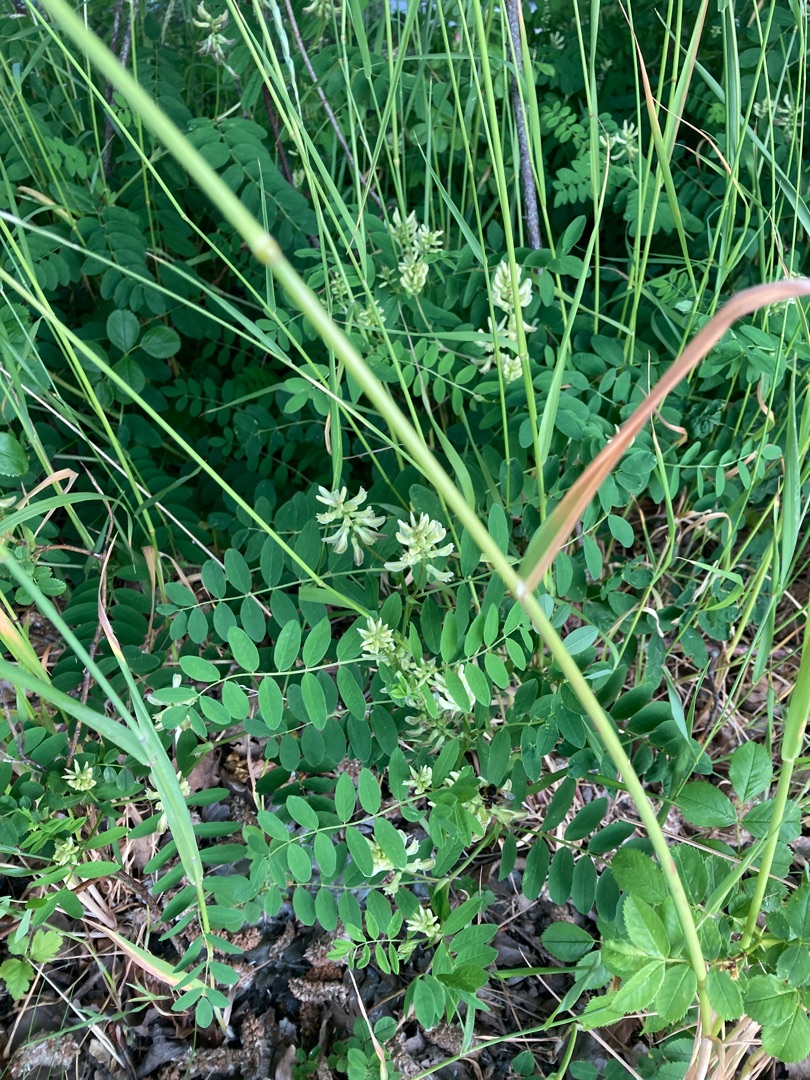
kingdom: Plantae
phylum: Tracheophyta
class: Magnoliopsida
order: Fabales
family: Fabaceae
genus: Astragalus
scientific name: Astragalus glycyphyllos
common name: Sød astragel
